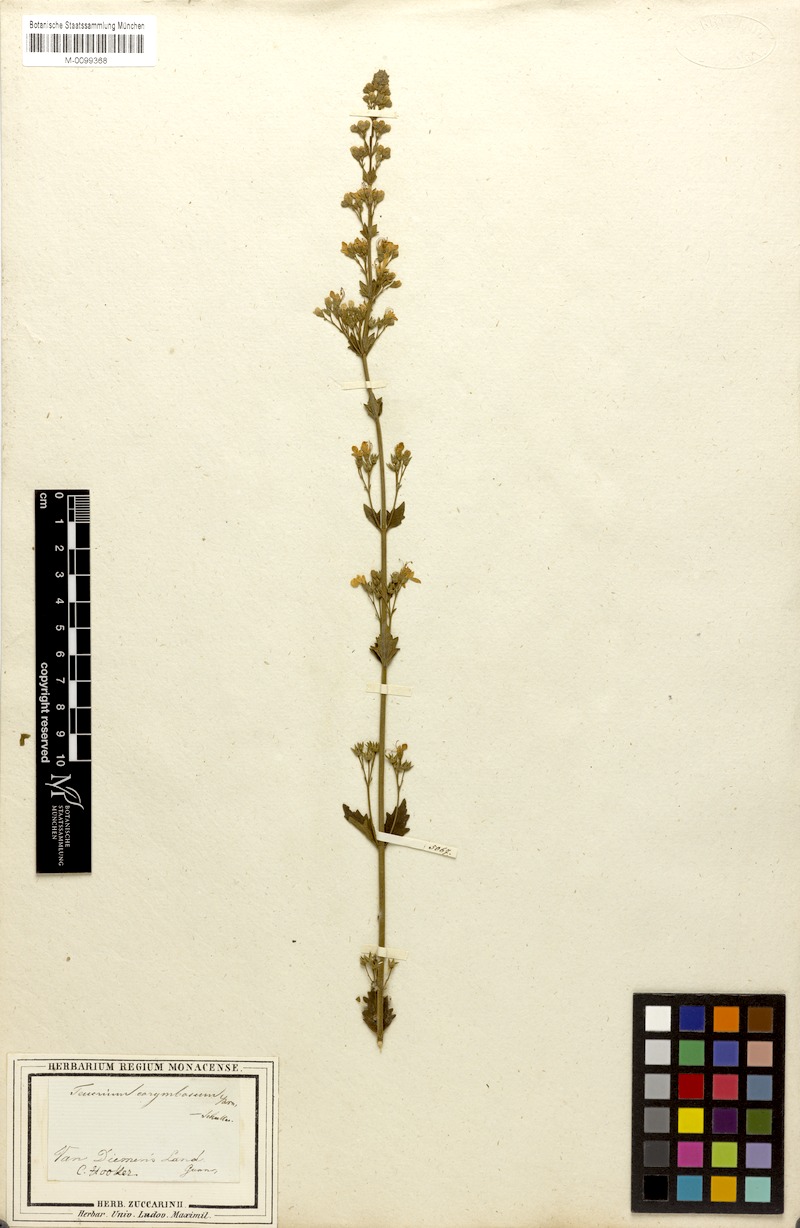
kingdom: Plantae
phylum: Tracheophyta
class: Magnoliopsida
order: Lamiales
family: Lamiaceae
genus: Teucrium
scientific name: Teucrium corymbosum
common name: Forest germander
